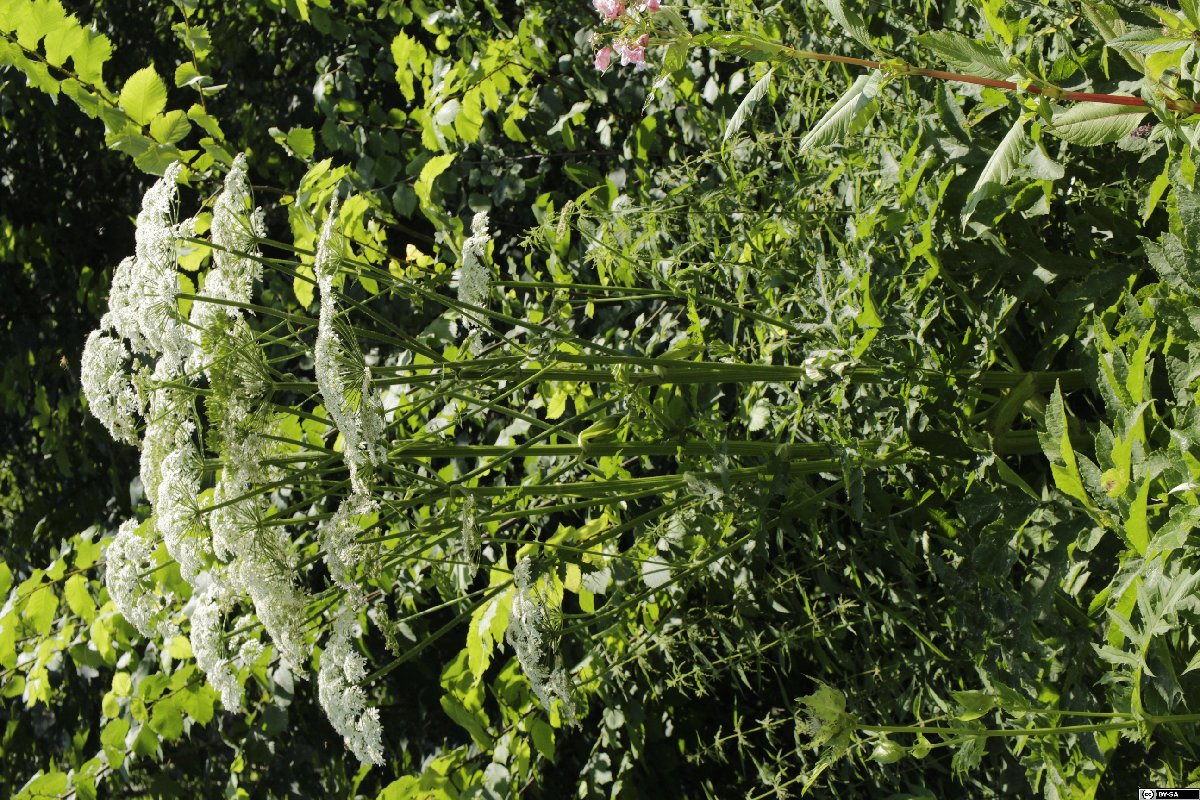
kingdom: Plantae
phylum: Tracheophyta
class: Magnoliopsida
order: Apiales
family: Apiaceae
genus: Heracleum
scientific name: Heracleum mantegazzianum
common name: Giant hogweed
